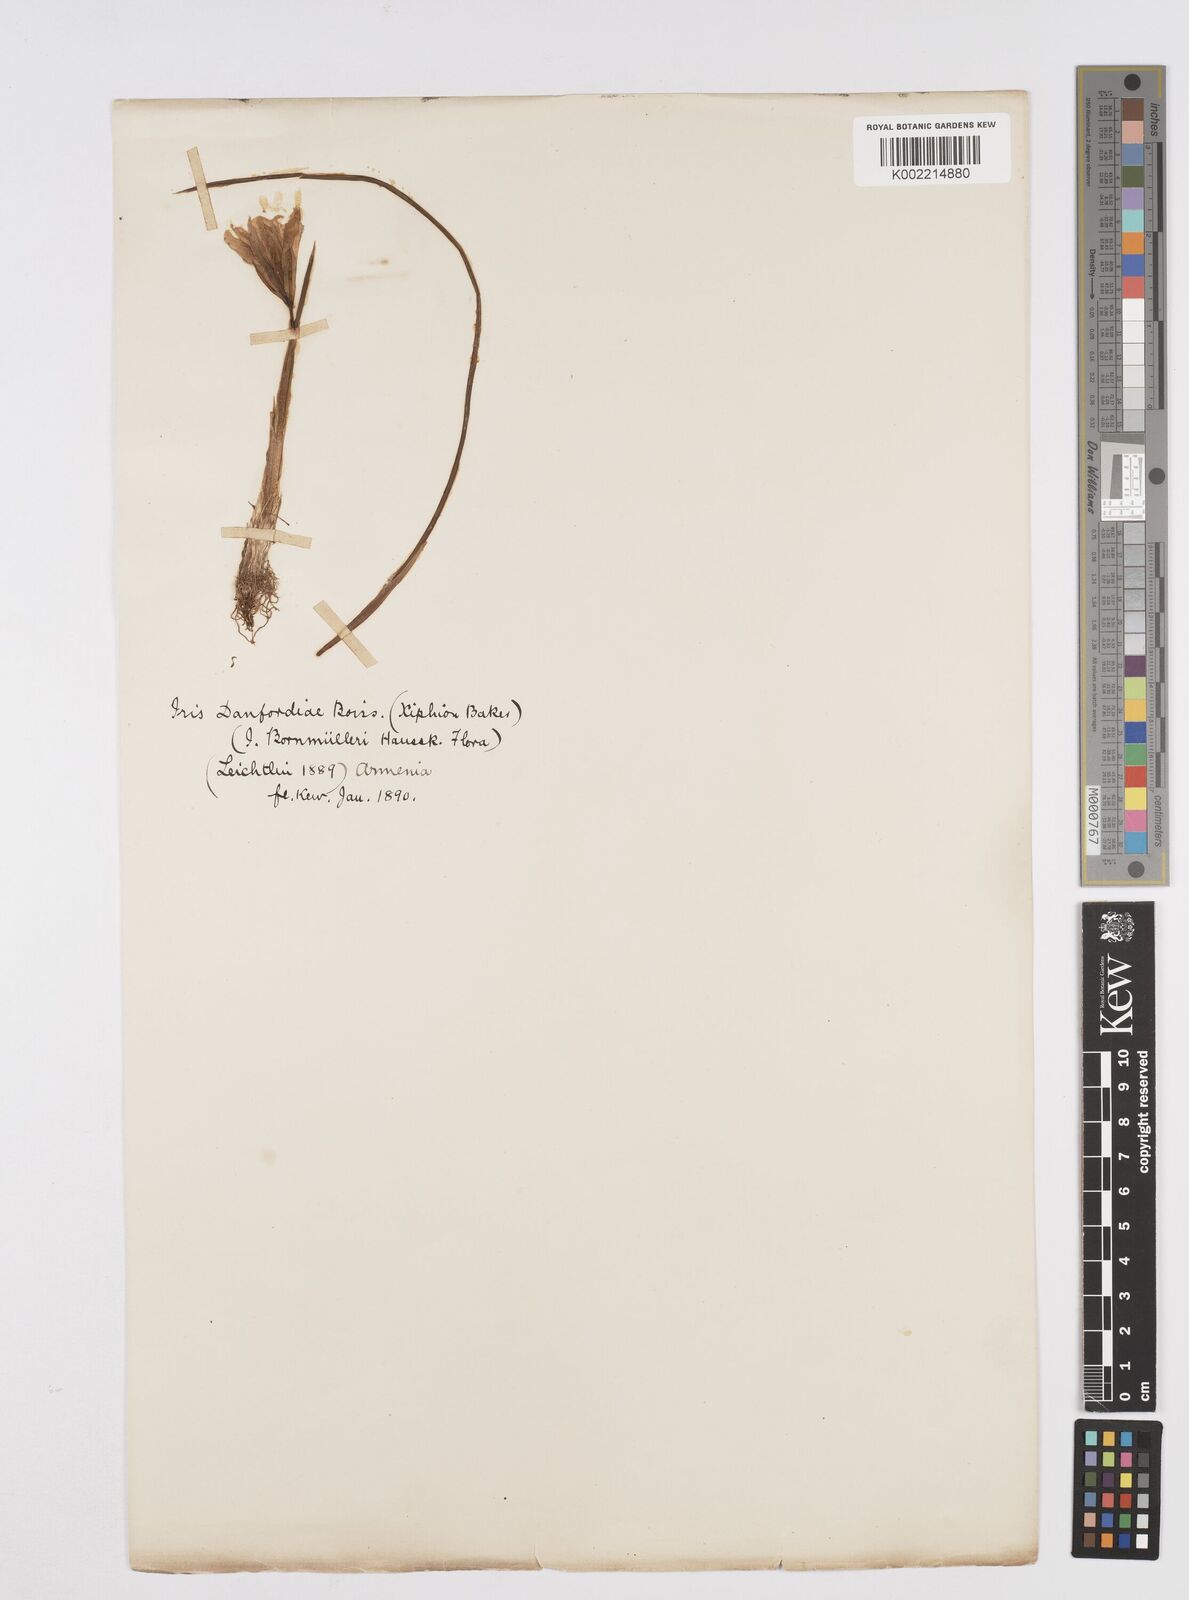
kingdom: Plantae
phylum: Tracheophyta
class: Liliopsida
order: Asparagales
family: Iridaceae
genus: Iris
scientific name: Iris danfordiae
